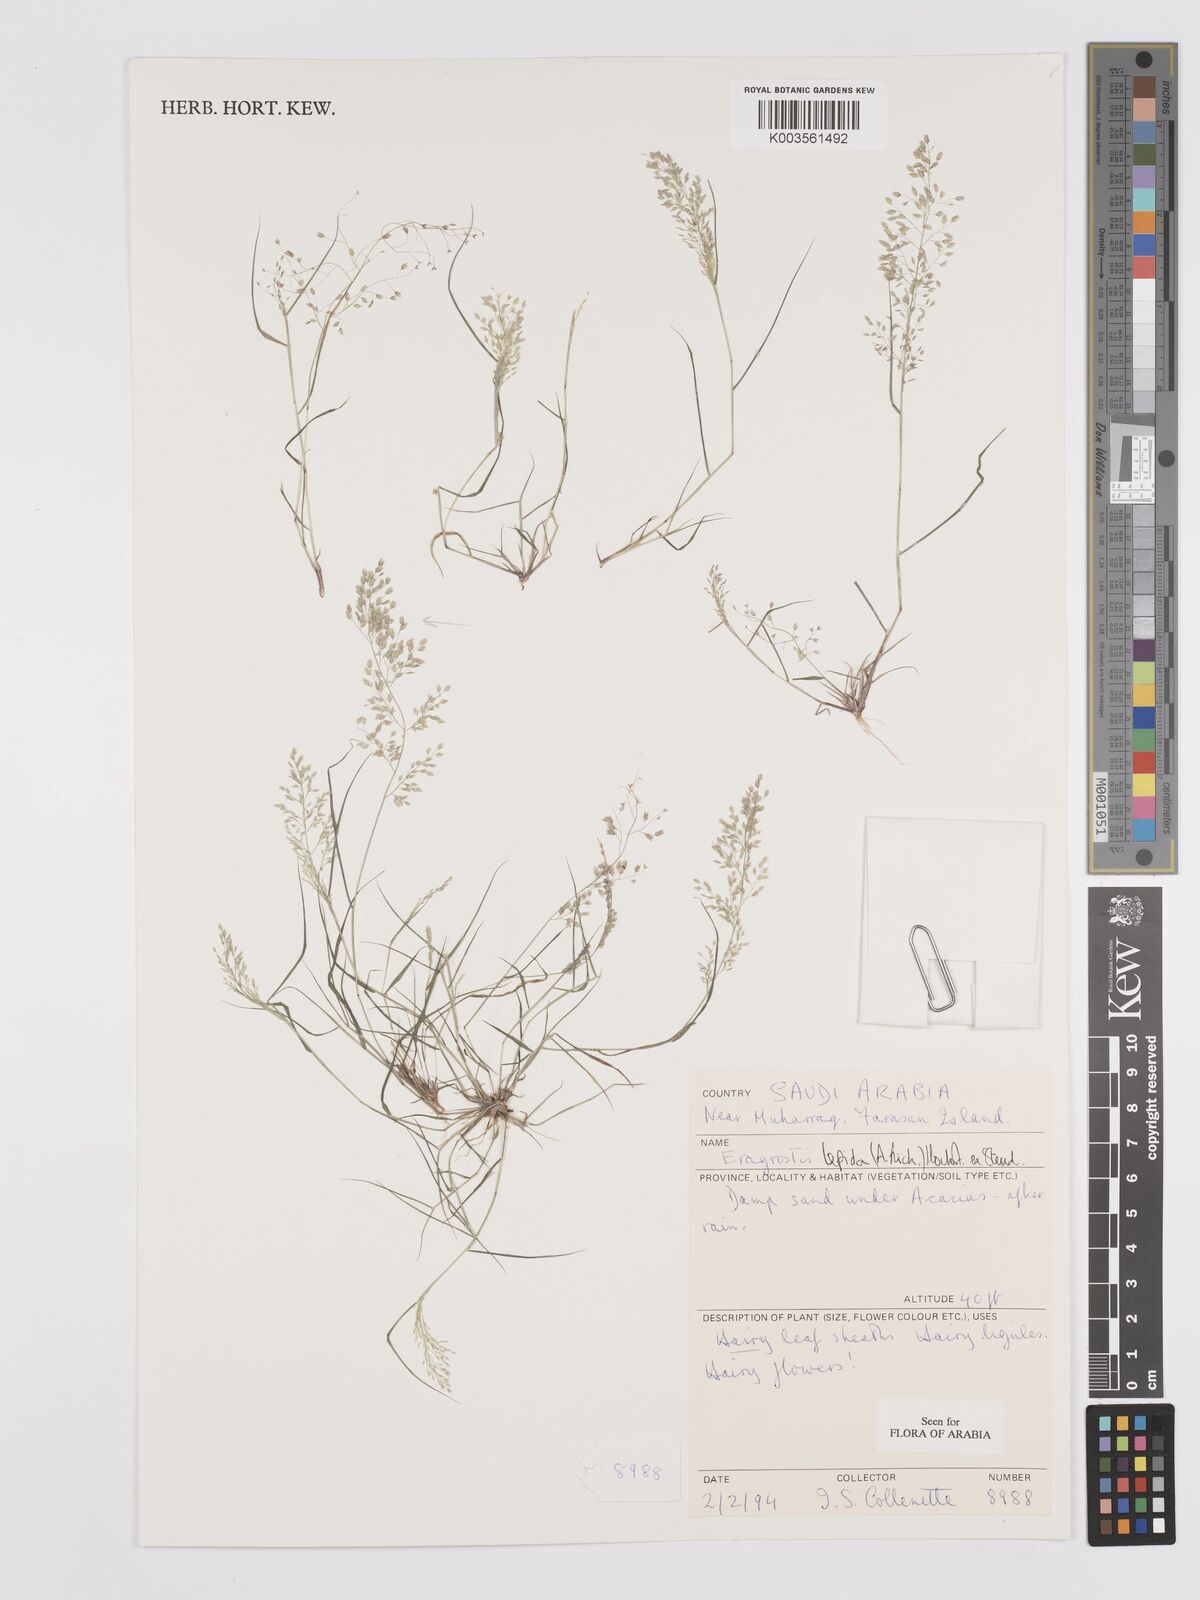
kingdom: Plantae
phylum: Tracheophyta
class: Liliopsida
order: Poales
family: Poaceae
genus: Eragrostis
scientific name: Eragrostis lepida
